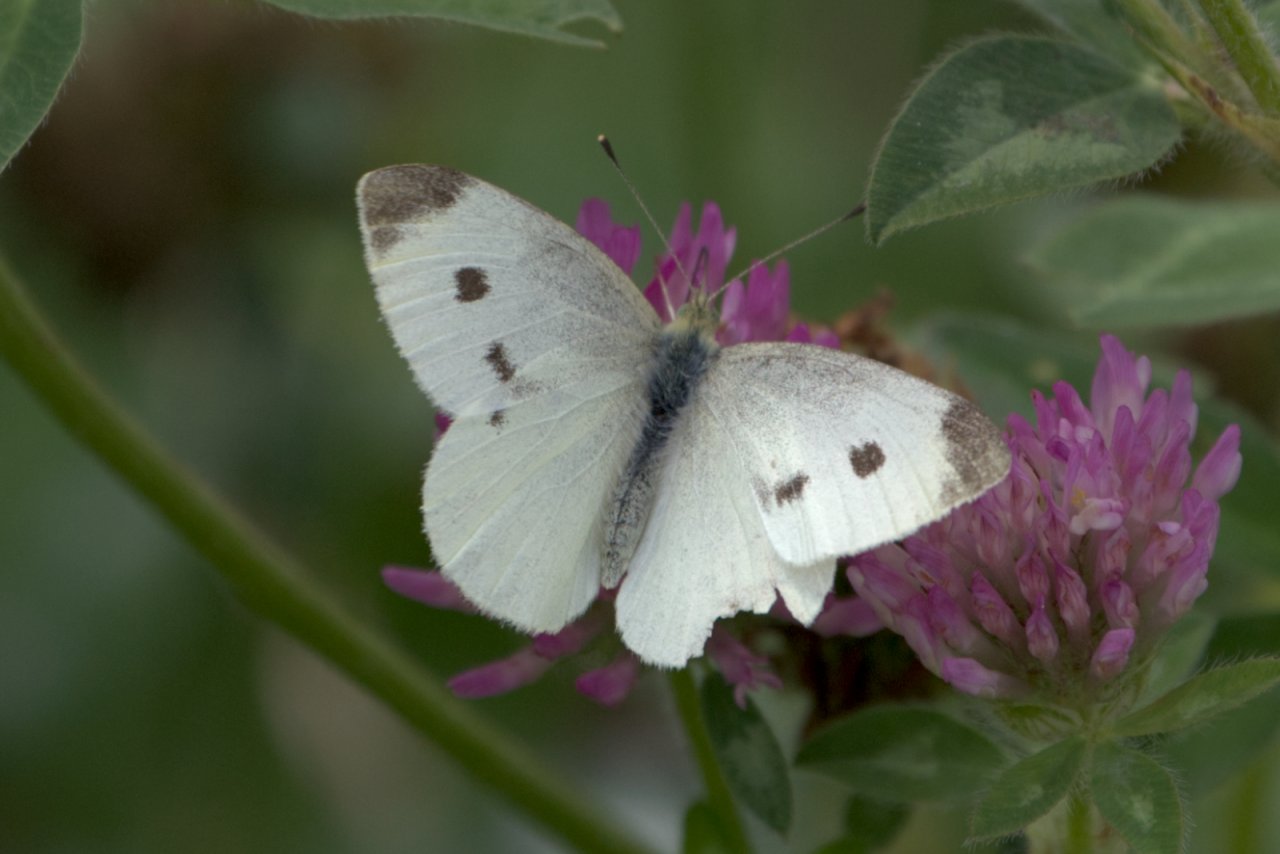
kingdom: Animalia
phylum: Arthropoda
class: Insecta
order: Lepidoptera
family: Pieridae
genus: Pieris
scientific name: Pieris rapae
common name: Cabbage White
